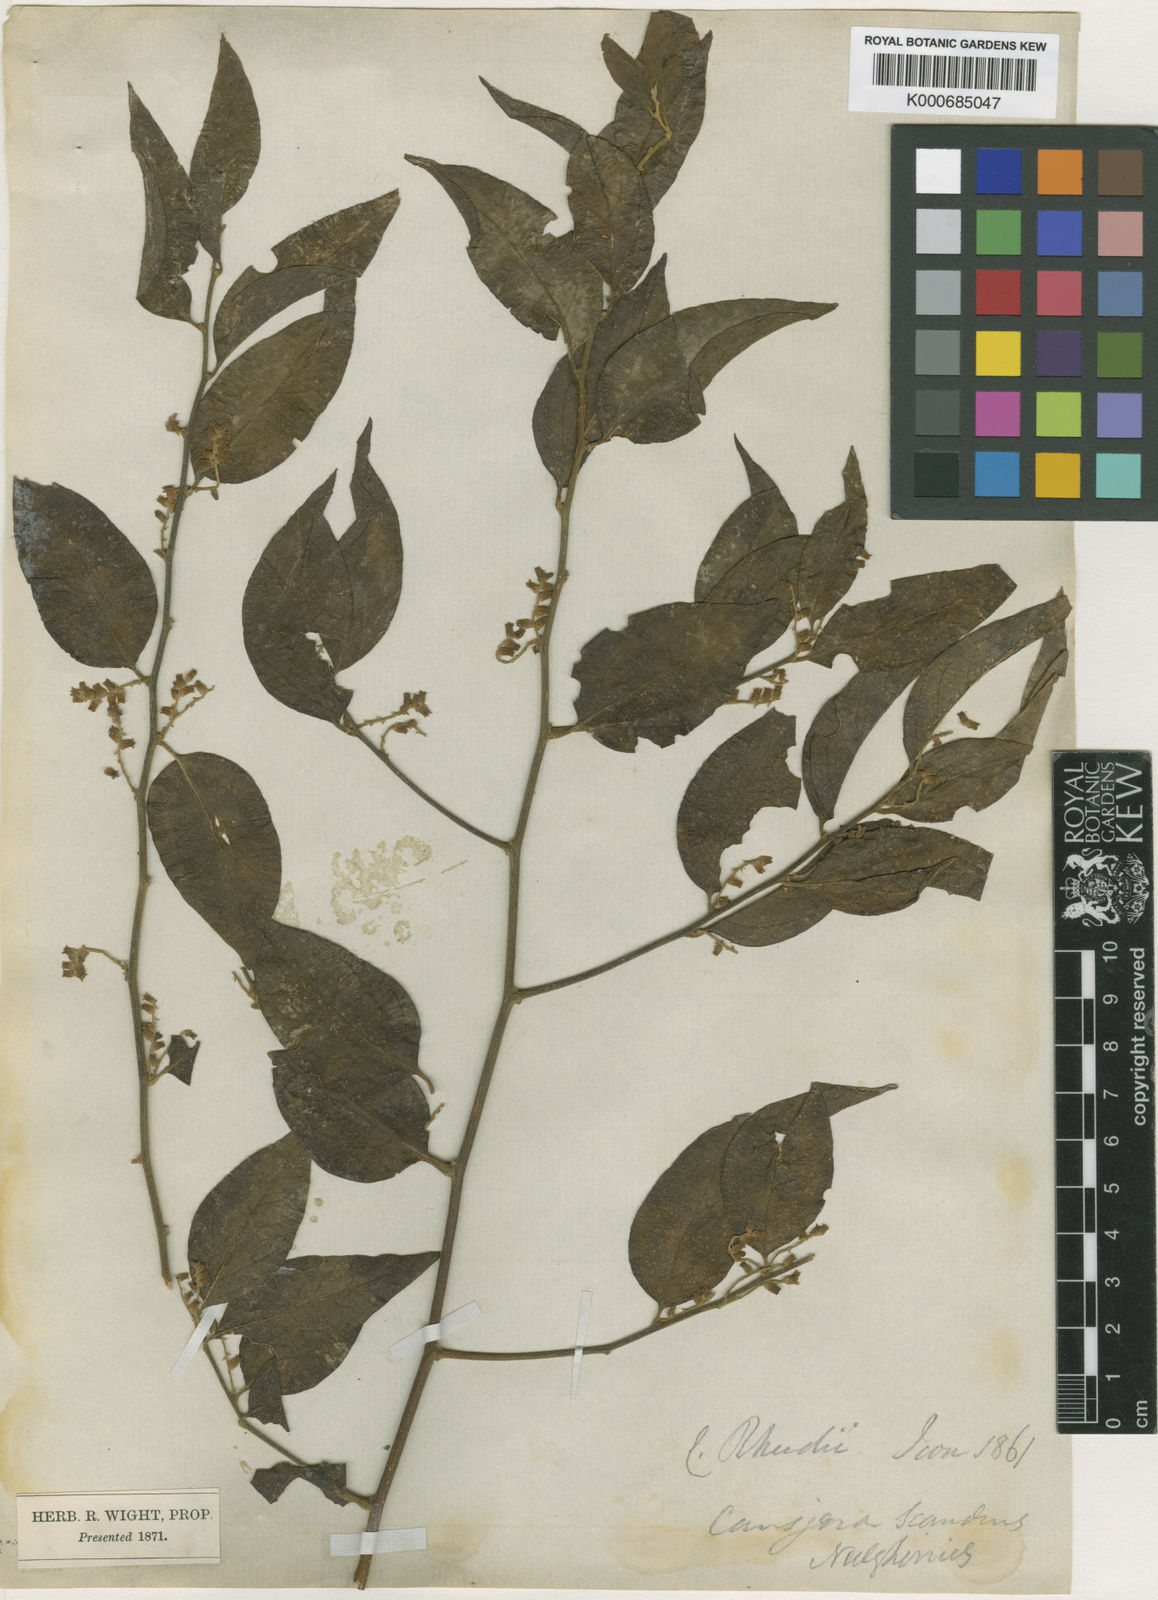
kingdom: Plantae
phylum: Tracheophyta
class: Magnoliopsida
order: Santalales
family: Opiliaceae
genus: Cansjera
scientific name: Cansjera rheedei
